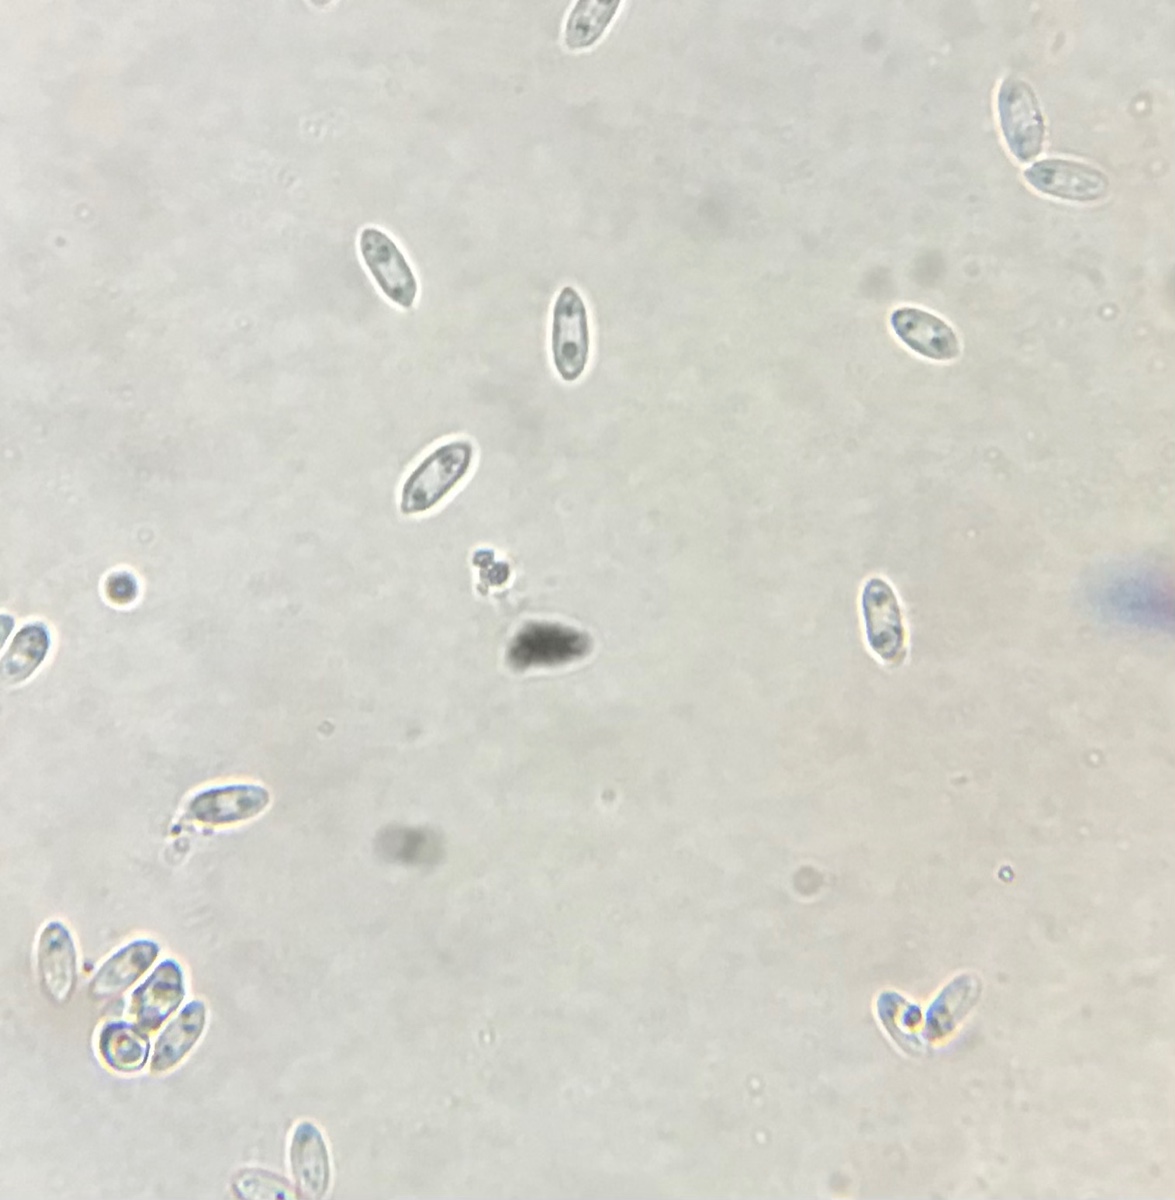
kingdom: Fungi
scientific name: Fungi
